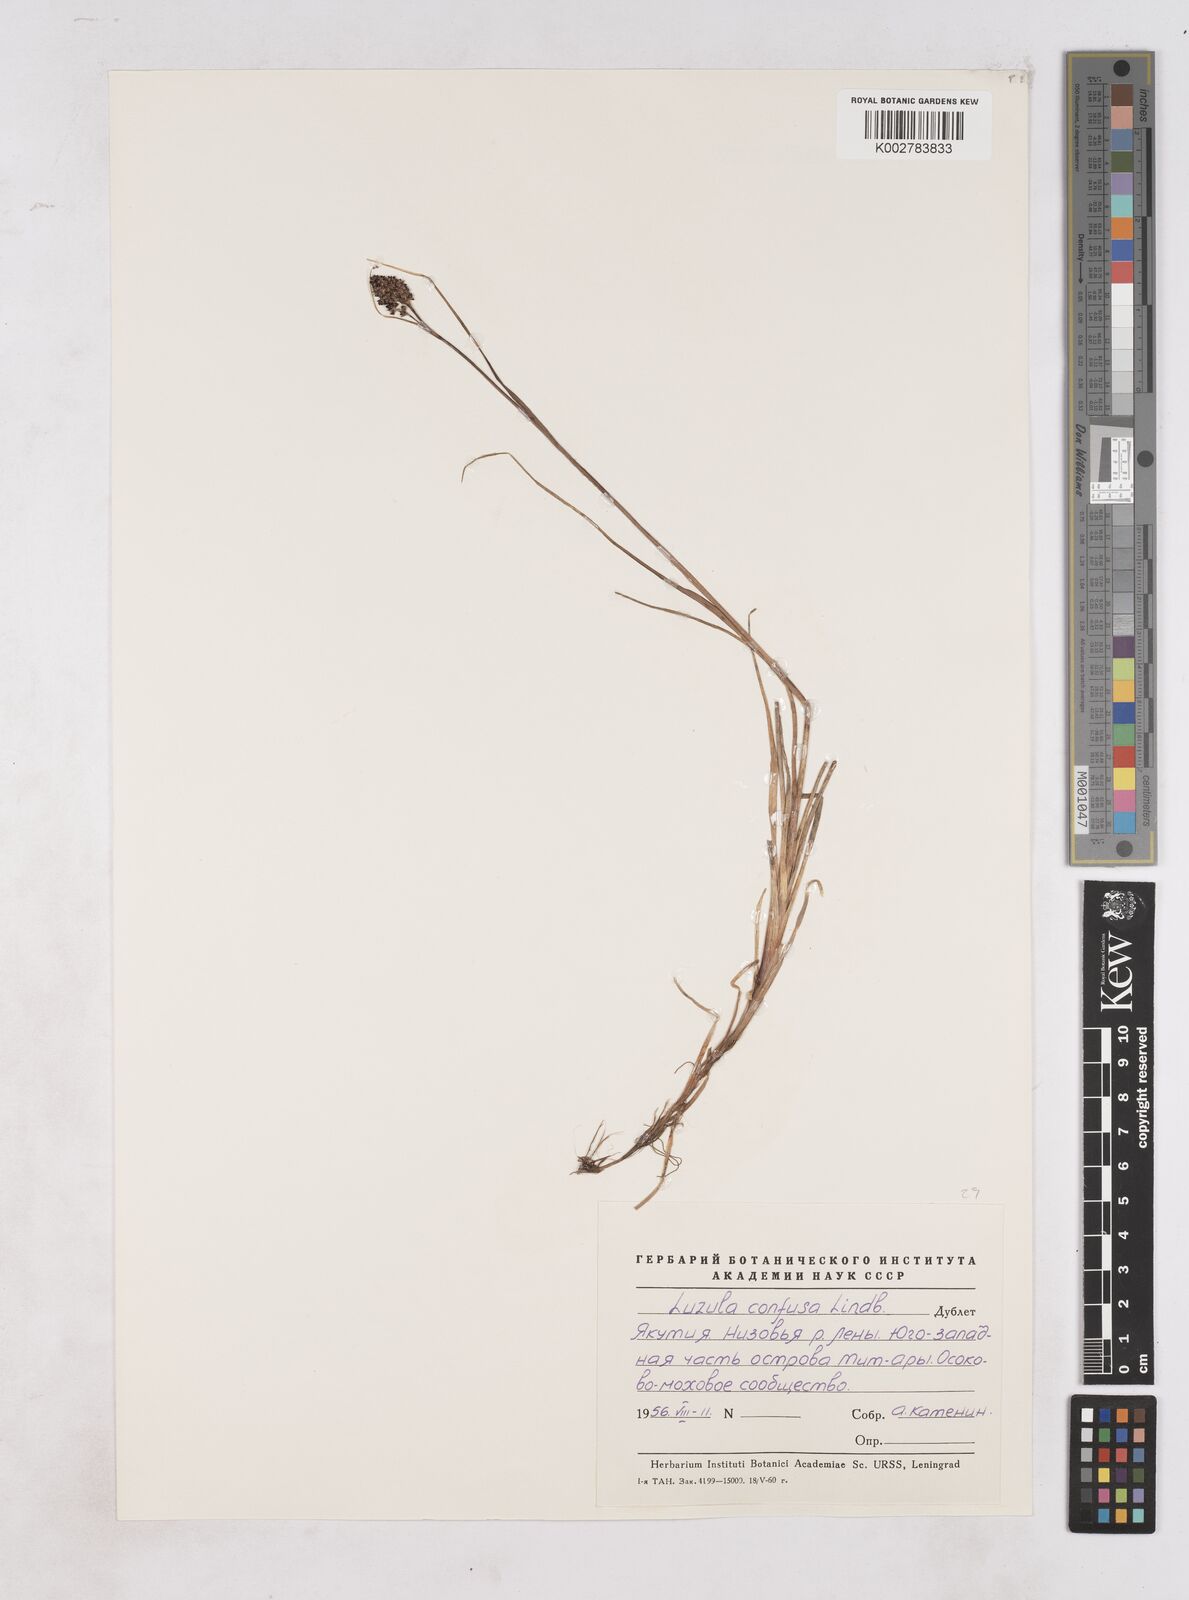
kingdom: Plantae
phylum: Tracheophyta
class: Liliopsida
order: Poales
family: Juncaceae
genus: Luzula
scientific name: Luzula confusa
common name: Northern wood rush
